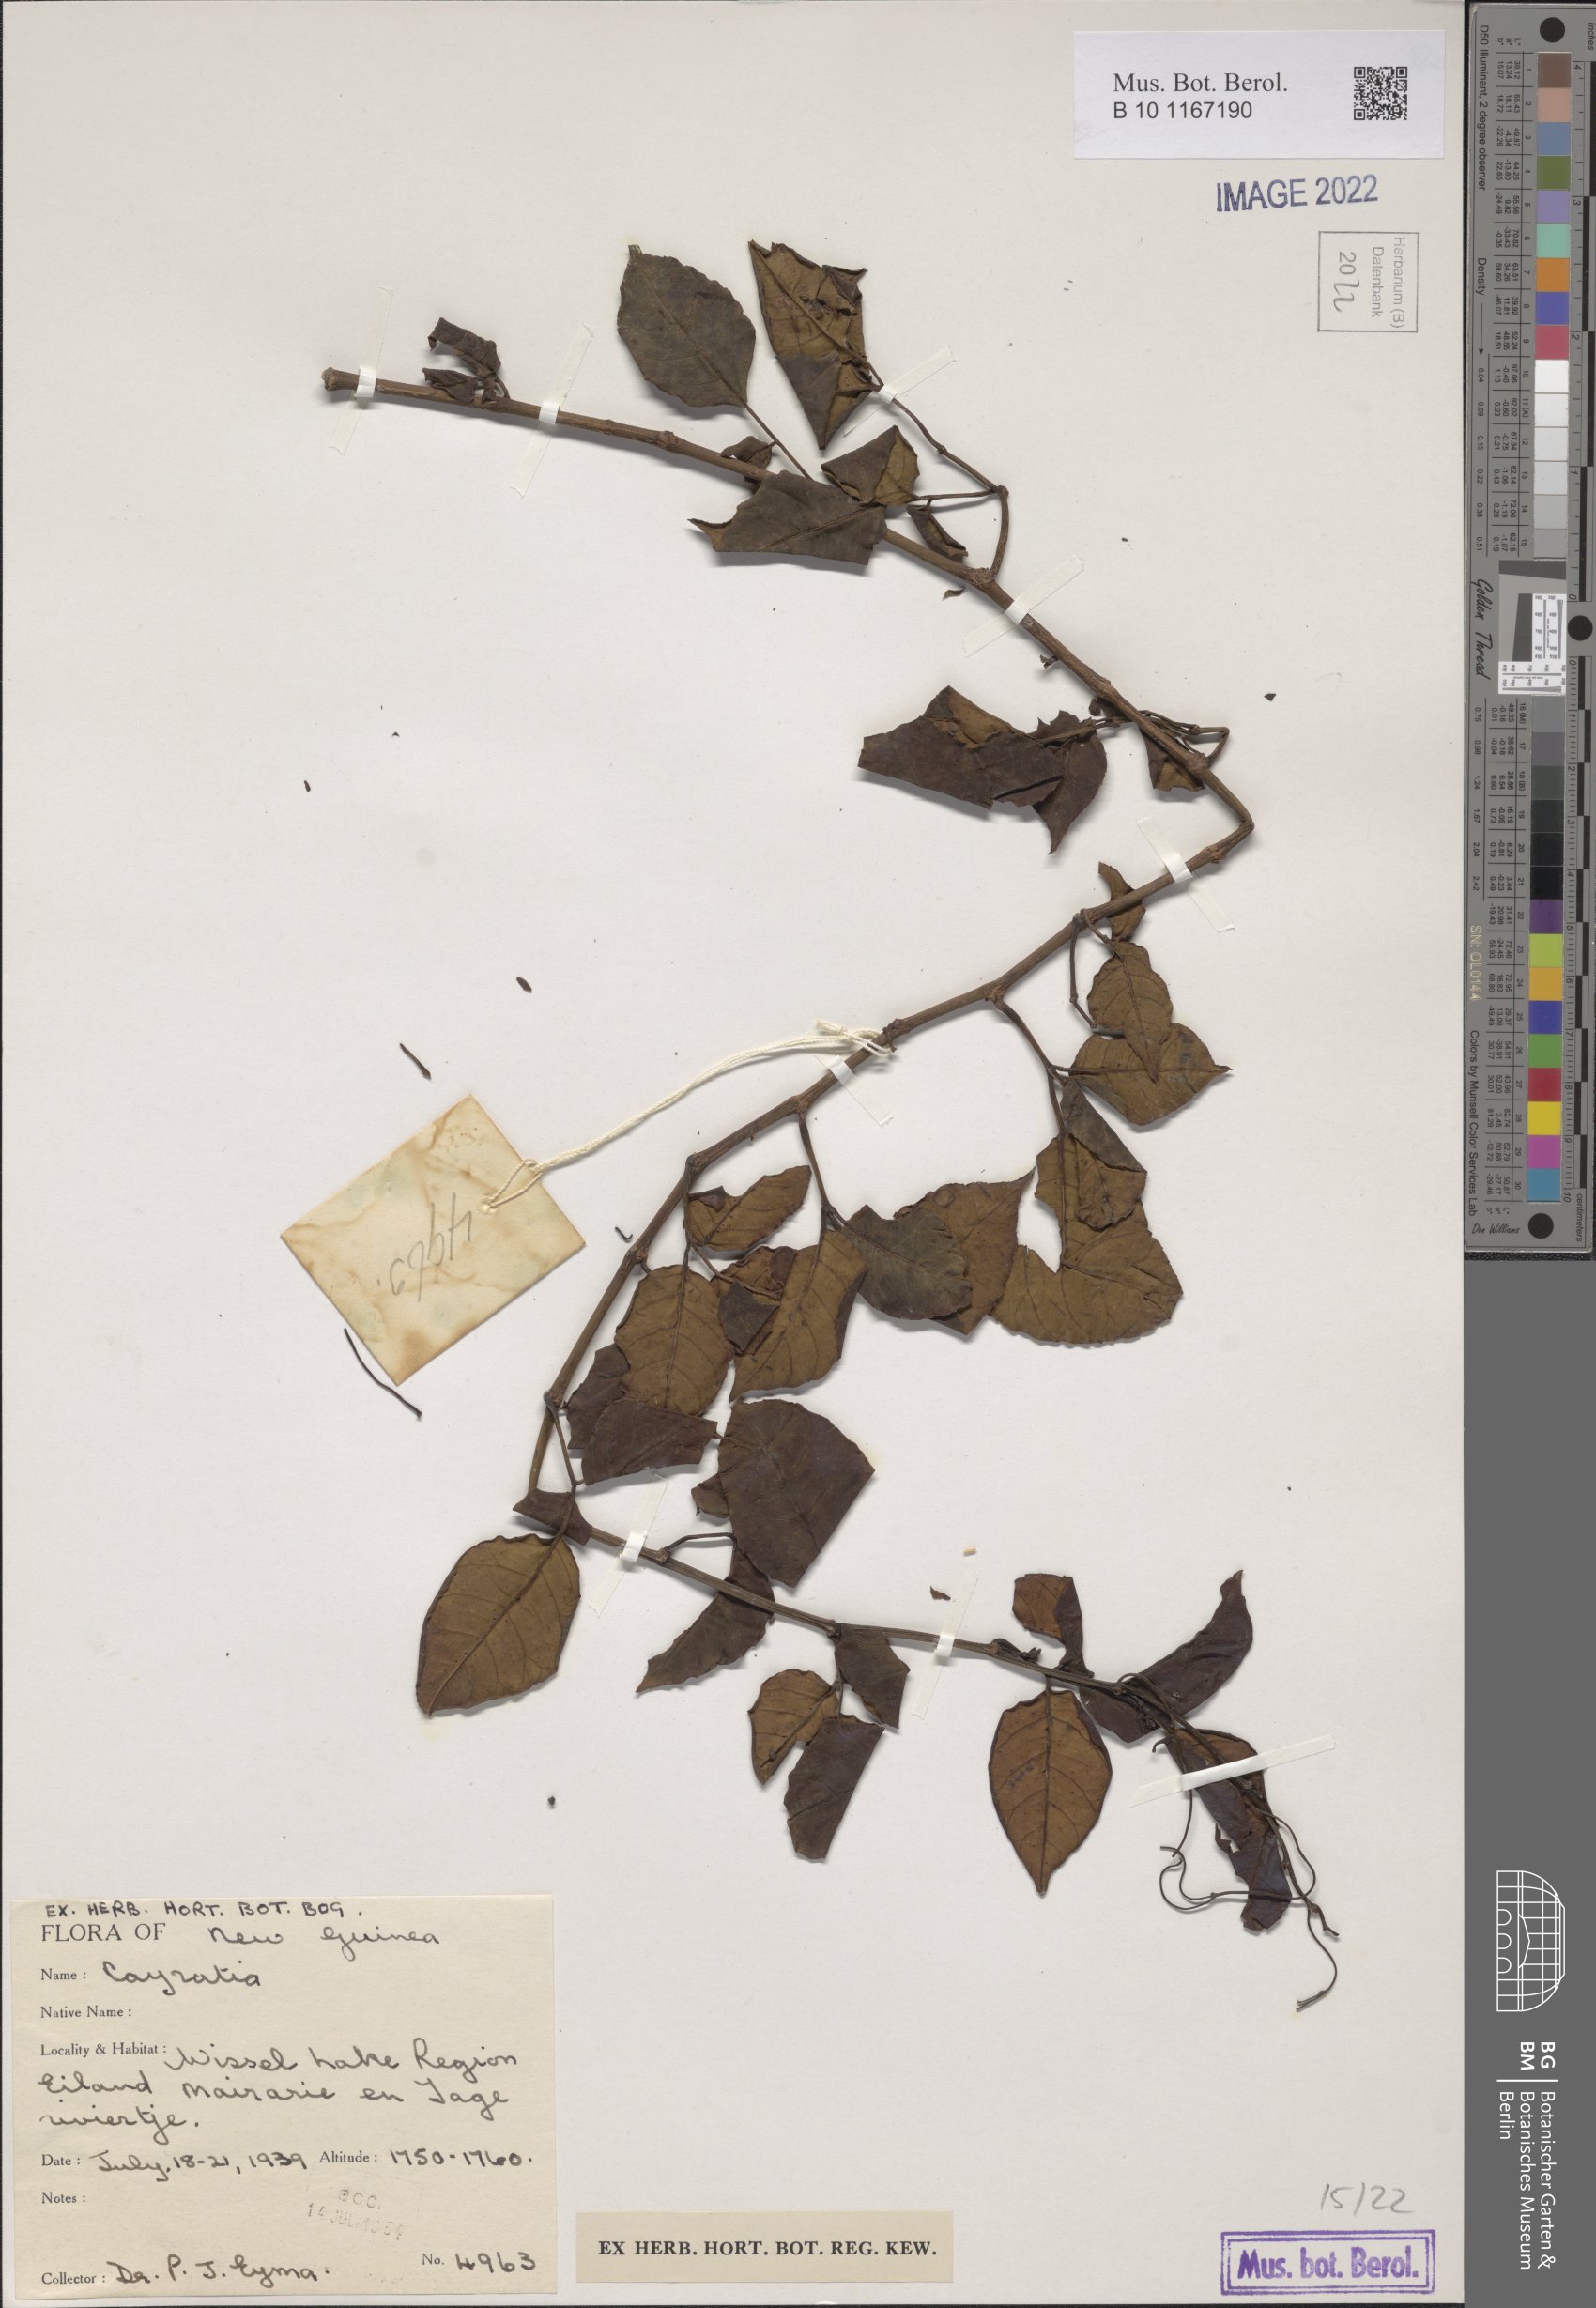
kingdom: Plantae
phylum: Tracheophyta
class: Magnoliopsida
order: Vitales
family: Vitaceae
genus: Cayratia
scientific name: Cayratia
